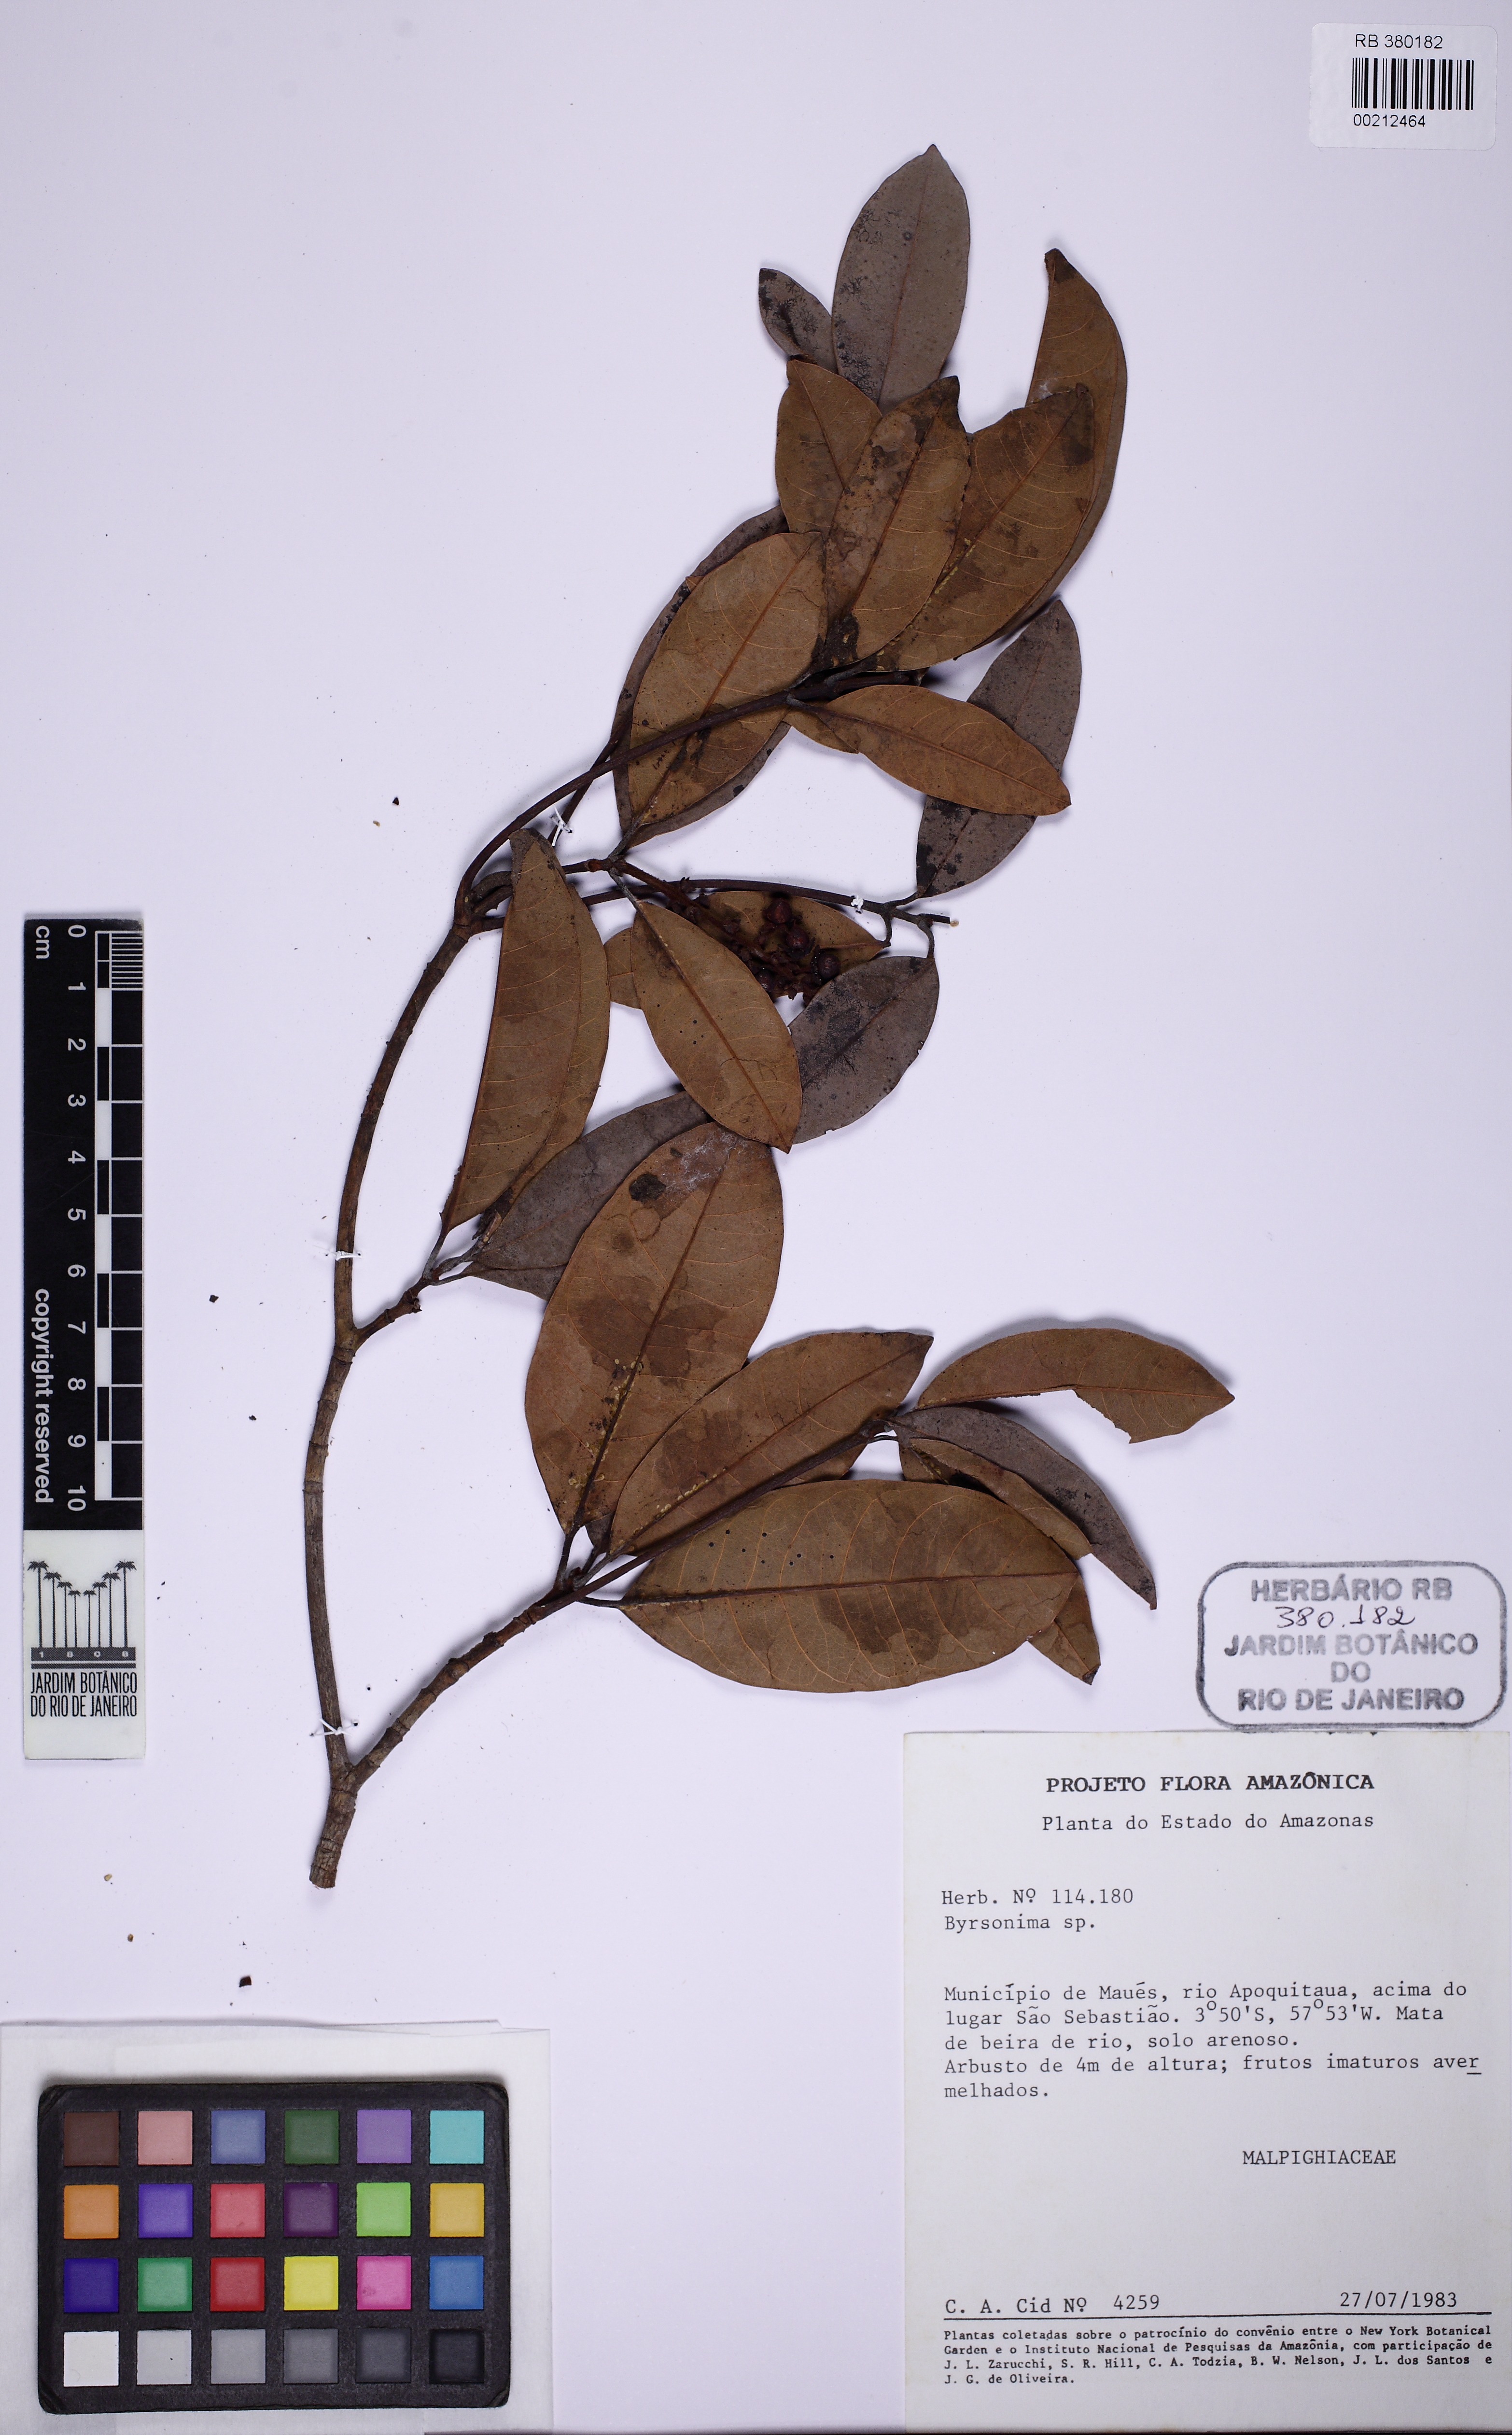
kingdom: Plantae
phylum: Tracheophyta
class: Magnoliopsida
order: Malpighiales
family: Malpighiaceae
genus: Byrsonima
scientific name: Byrsonima
